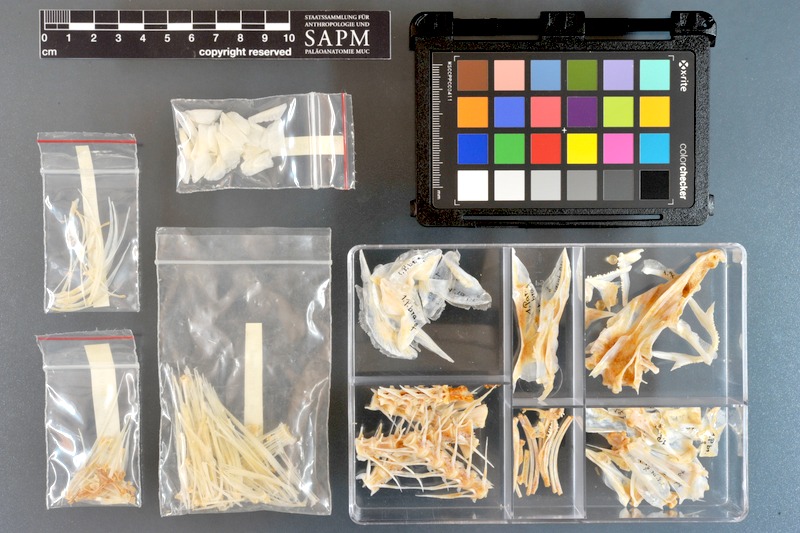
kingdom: Animalia
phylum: Chordata
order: Perciformes
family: Mullidae
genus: Parupeneus
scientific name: Parupeneus pleurostigma
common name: Sidespot goatfish
